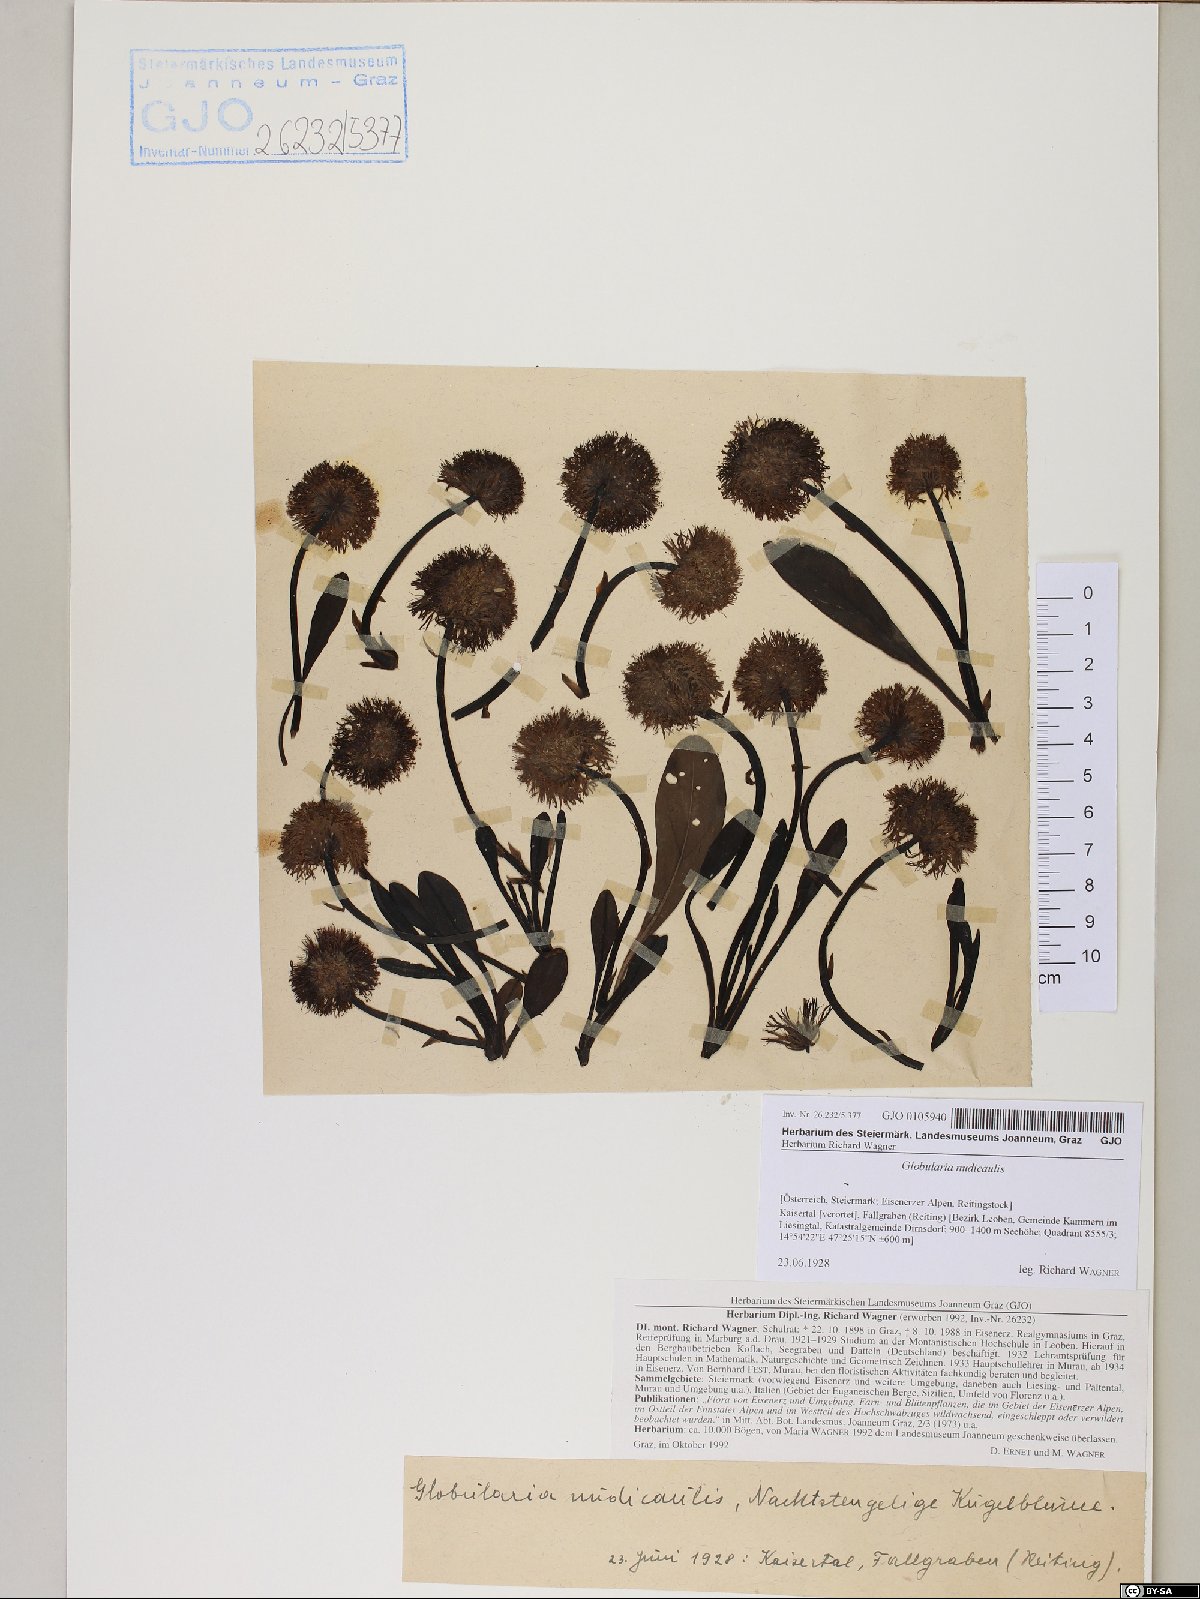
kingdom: Plantae
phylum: Tracheophyta
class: Magnoliopsida
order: Lamiales
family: Plantaginaceae
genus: Globularia
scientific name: Globularia nudicaulis
